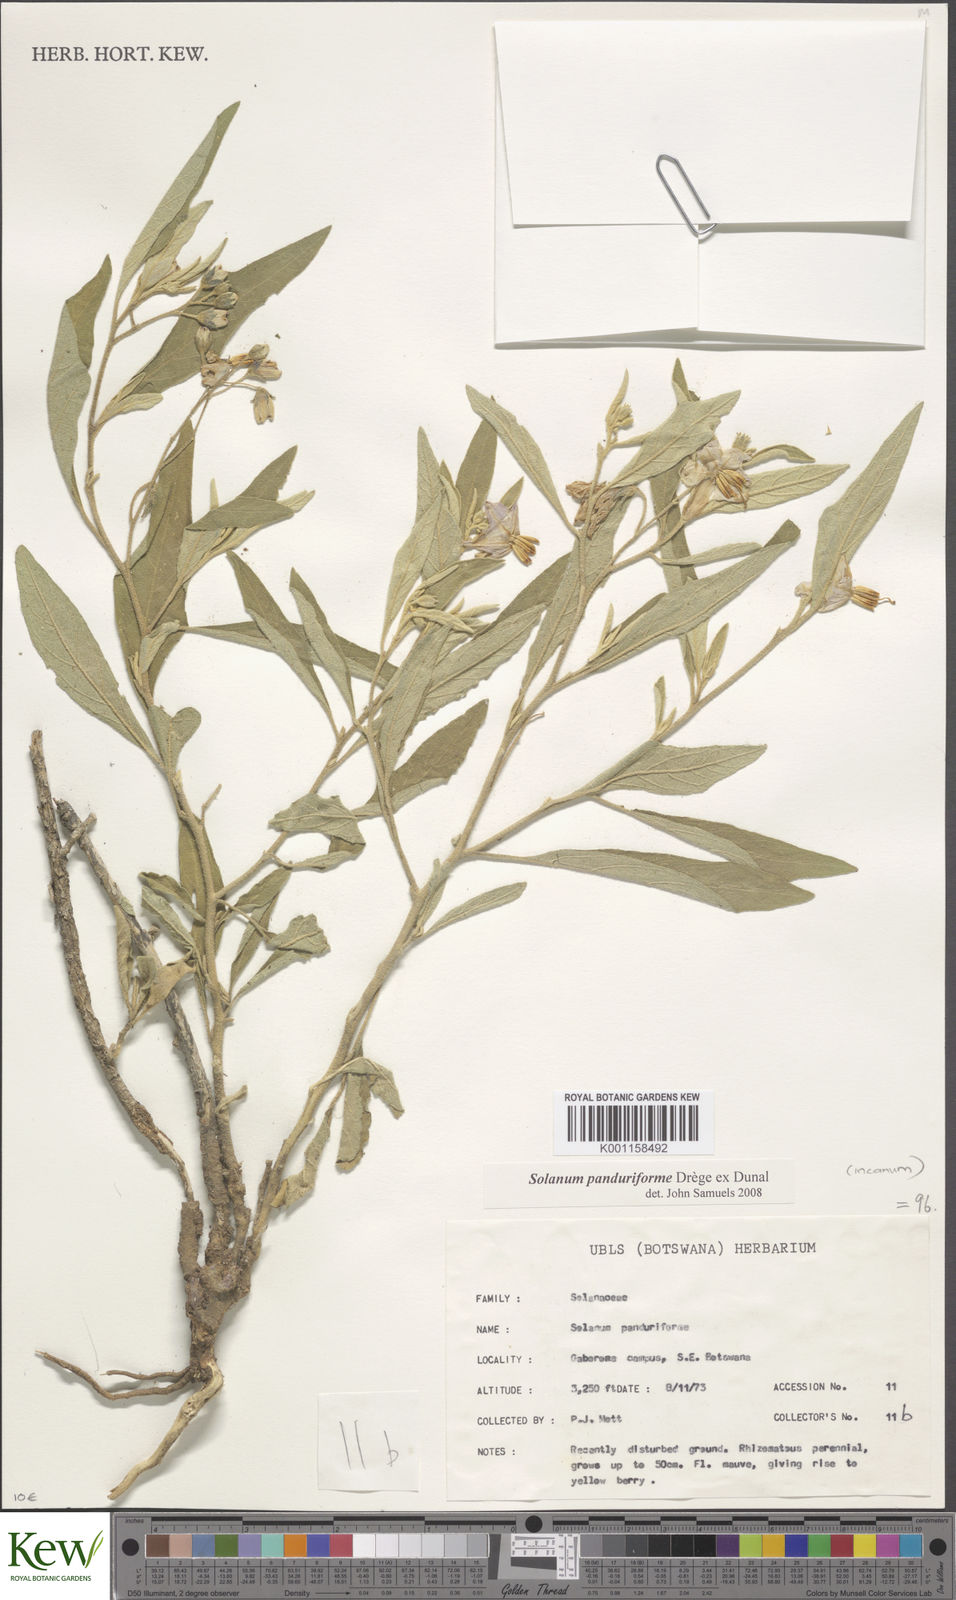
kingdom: Plantae
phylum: Tracheophyta
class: Magnoliopsida
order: Solanales
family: Solanaceae
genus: Solanum
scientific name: Solanum campylacanthum
